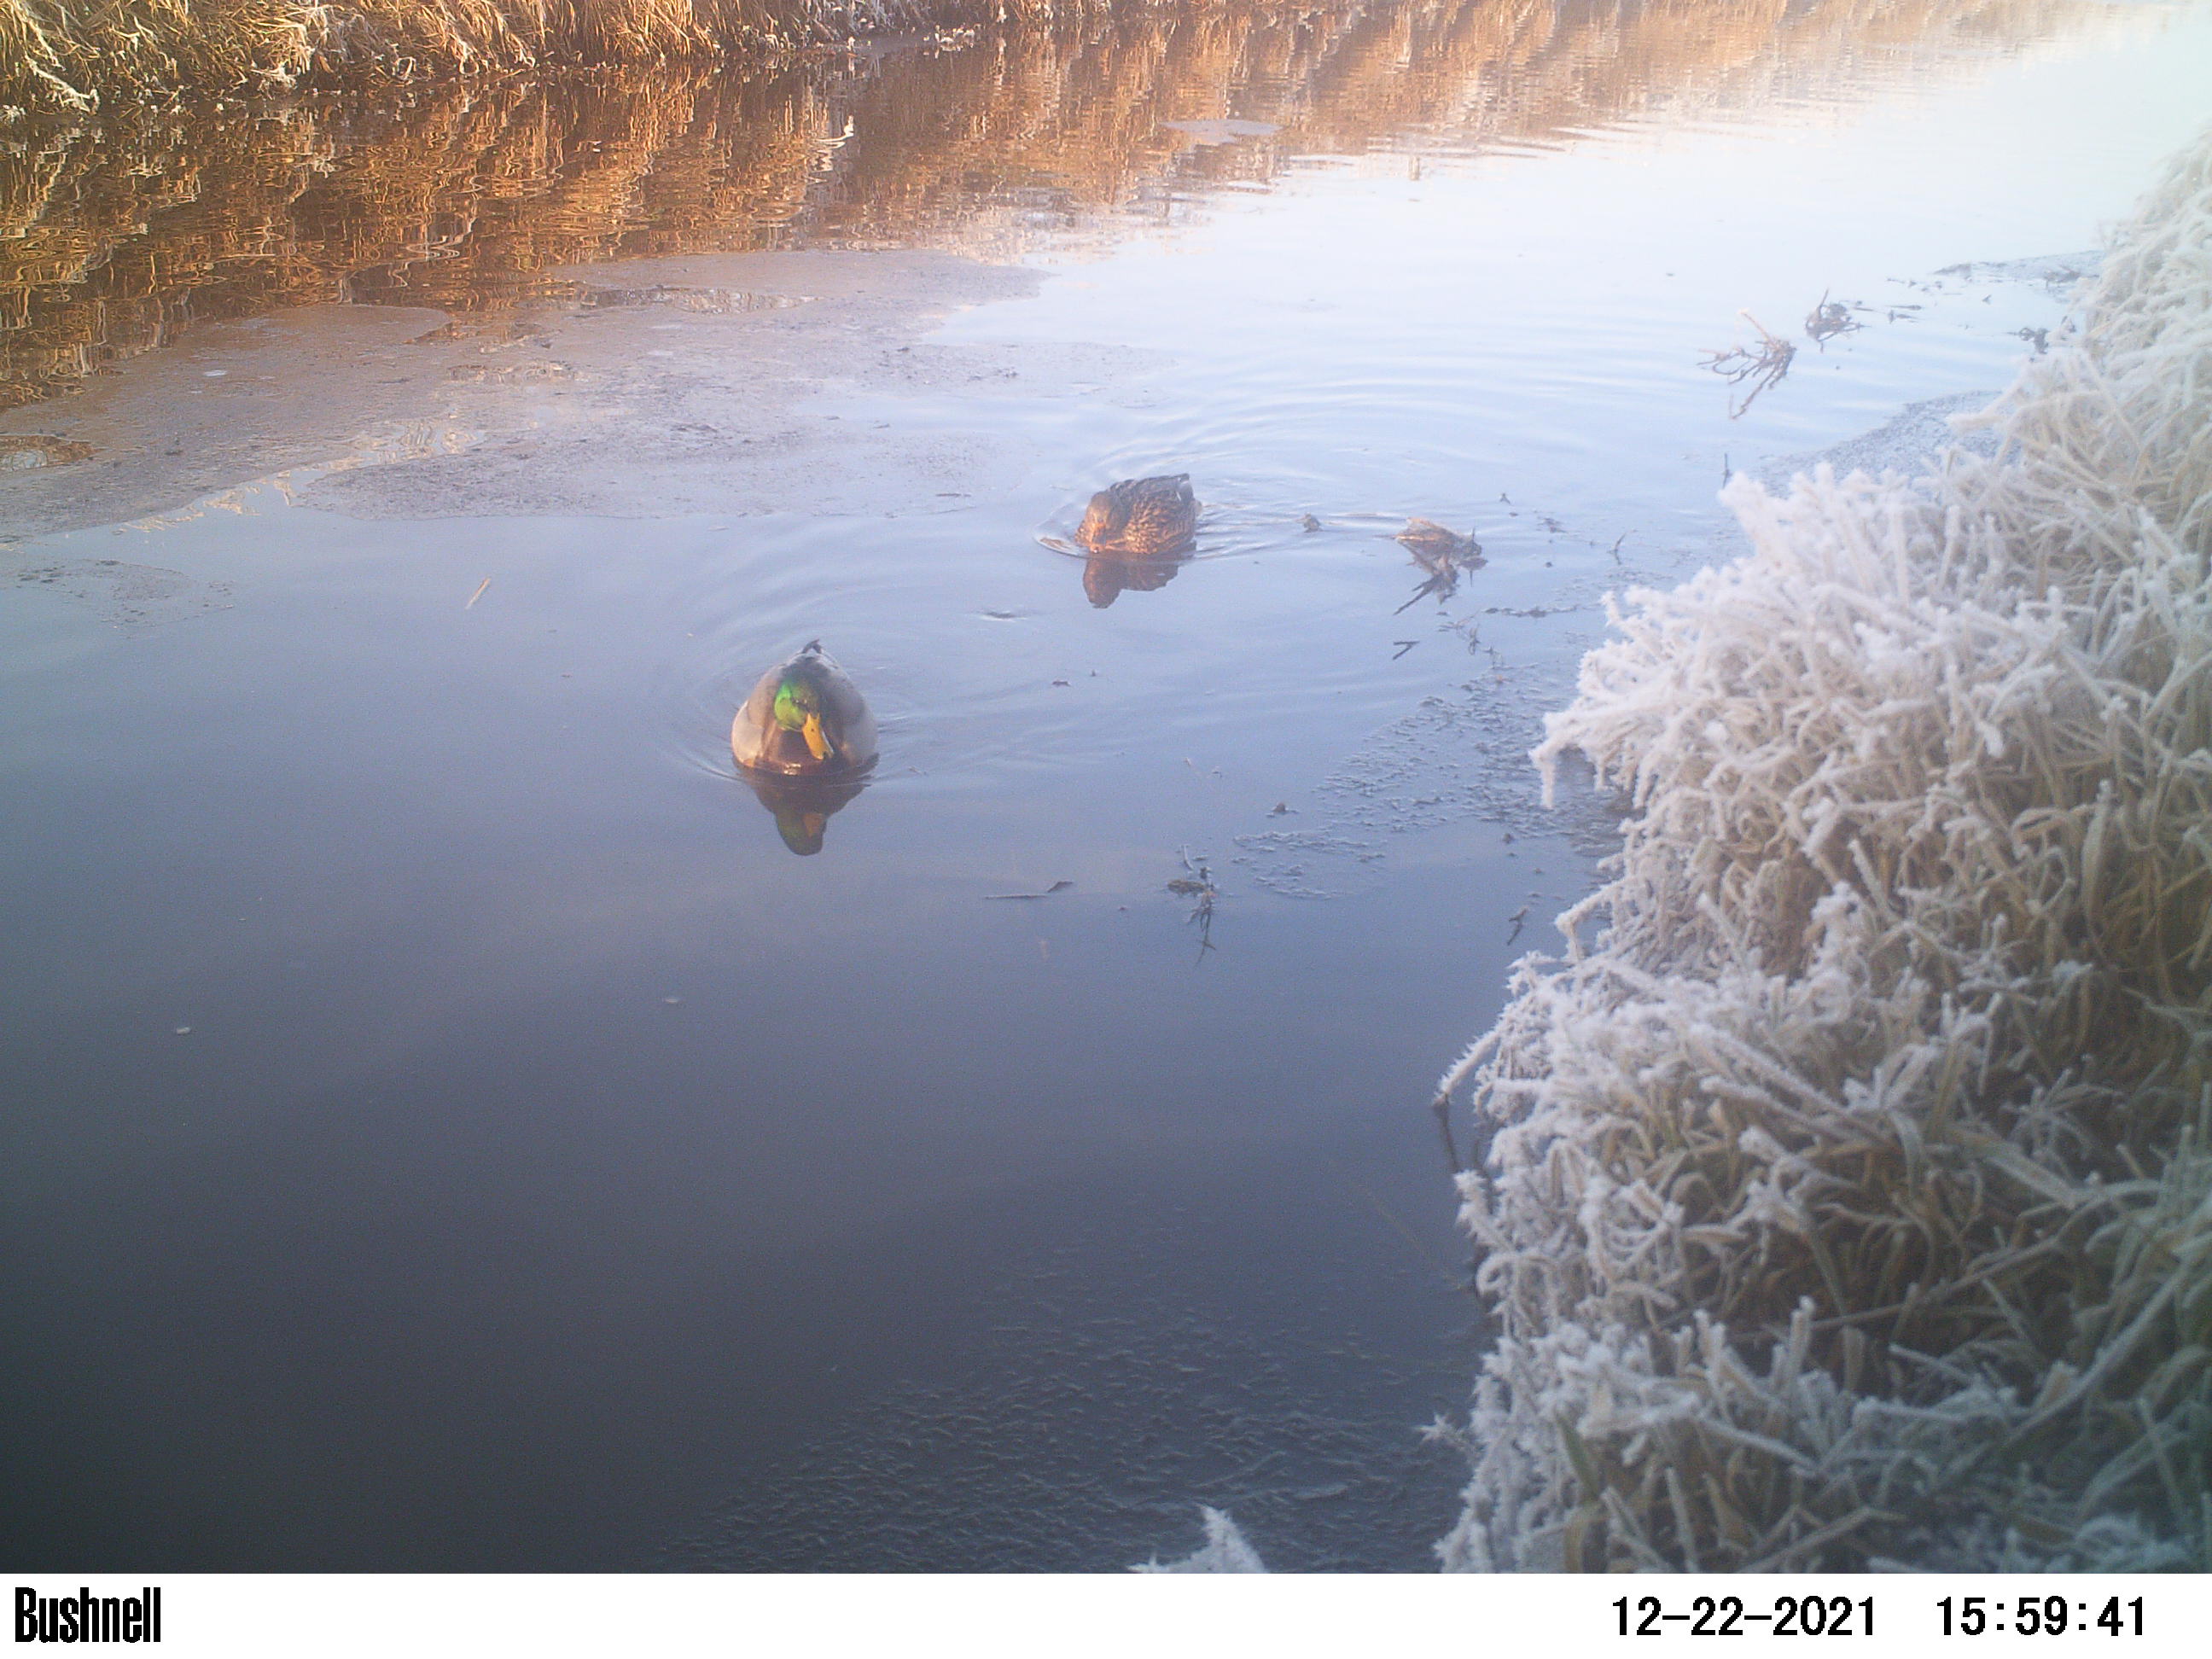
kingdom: Animalia
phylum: Chordata
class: Aves
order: Anseriformes
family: Anatidae
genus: Anas
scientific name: Anas
